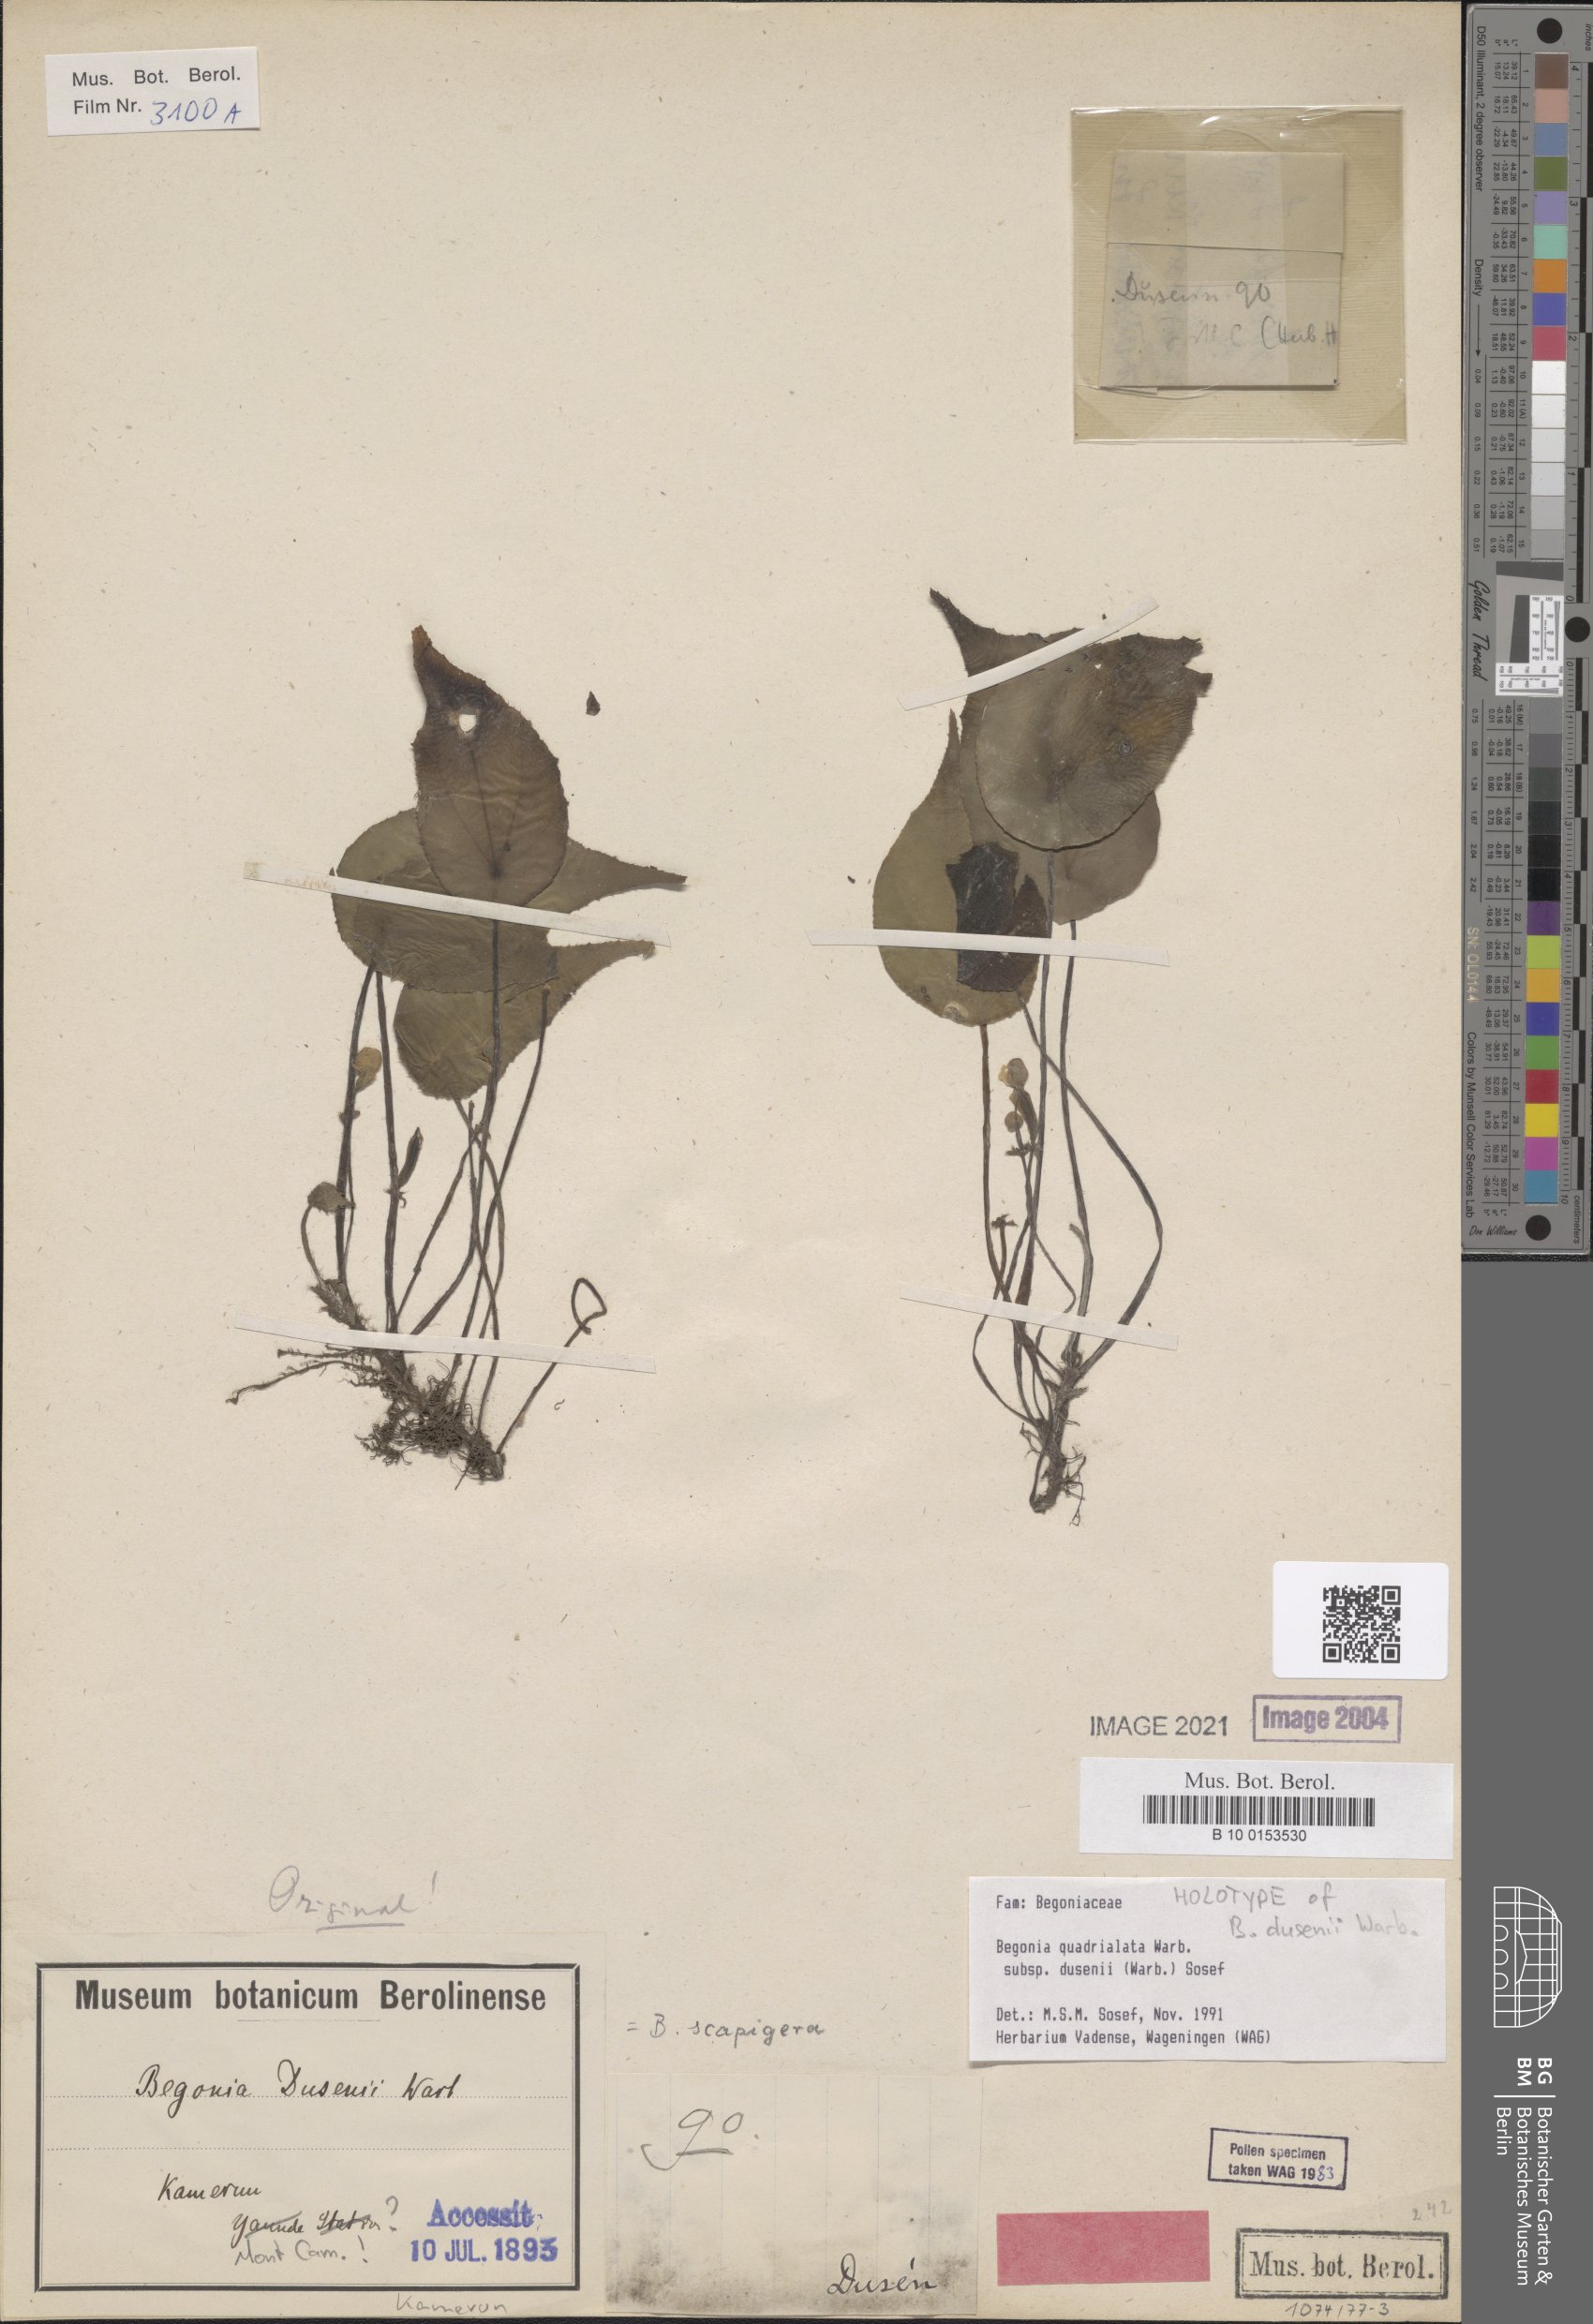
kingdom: Plantae
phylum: Tracheophyta
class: Magnoliopsida
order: Cucurbitales
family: Begoniaceae
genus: Begonia
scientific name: Begonia quadrialata
